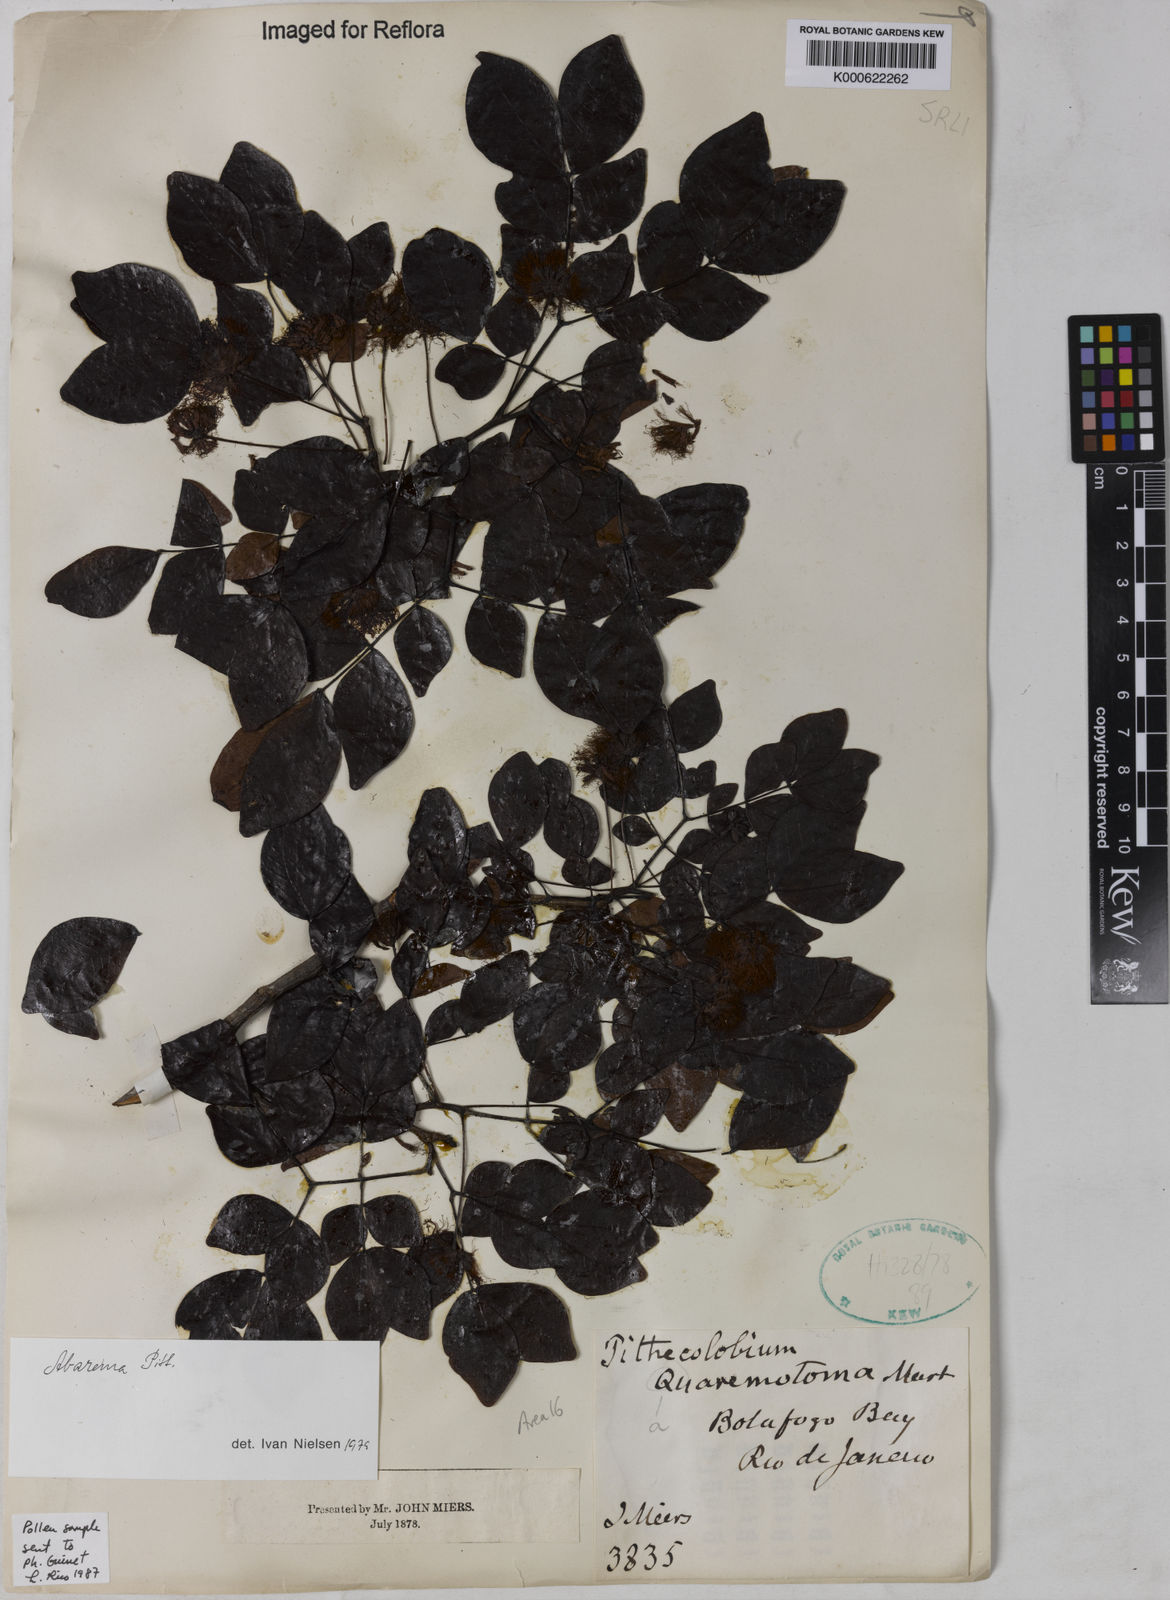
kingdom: Plantae
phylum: Tracheophyta
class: Magnoliopsida
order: Fabales
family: Fabaceae
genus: Abarema
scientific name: Abarema
